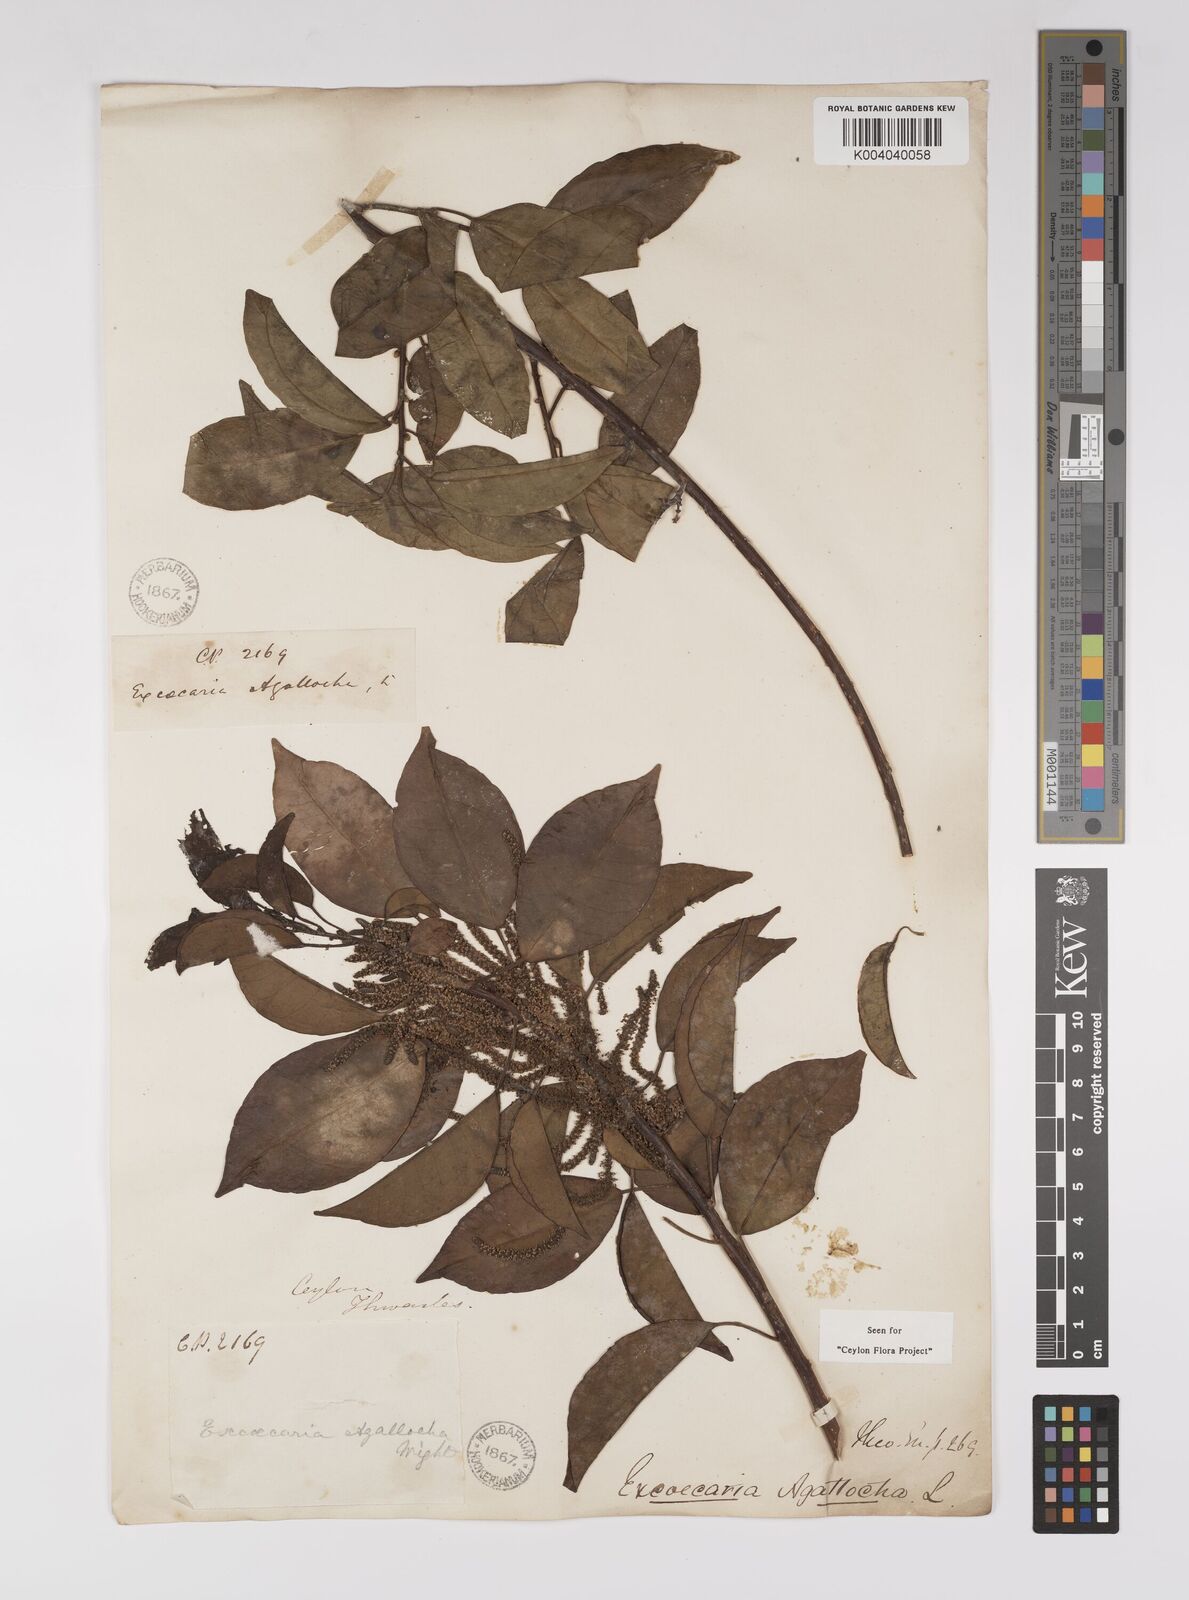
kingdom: Plantae
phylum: Tracheophyta
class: Magnoliopsida
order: Malpighiales
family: Euphorbiaceae
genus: Excoecaria
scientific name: Excoecaria agallocha
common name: River poisontree
